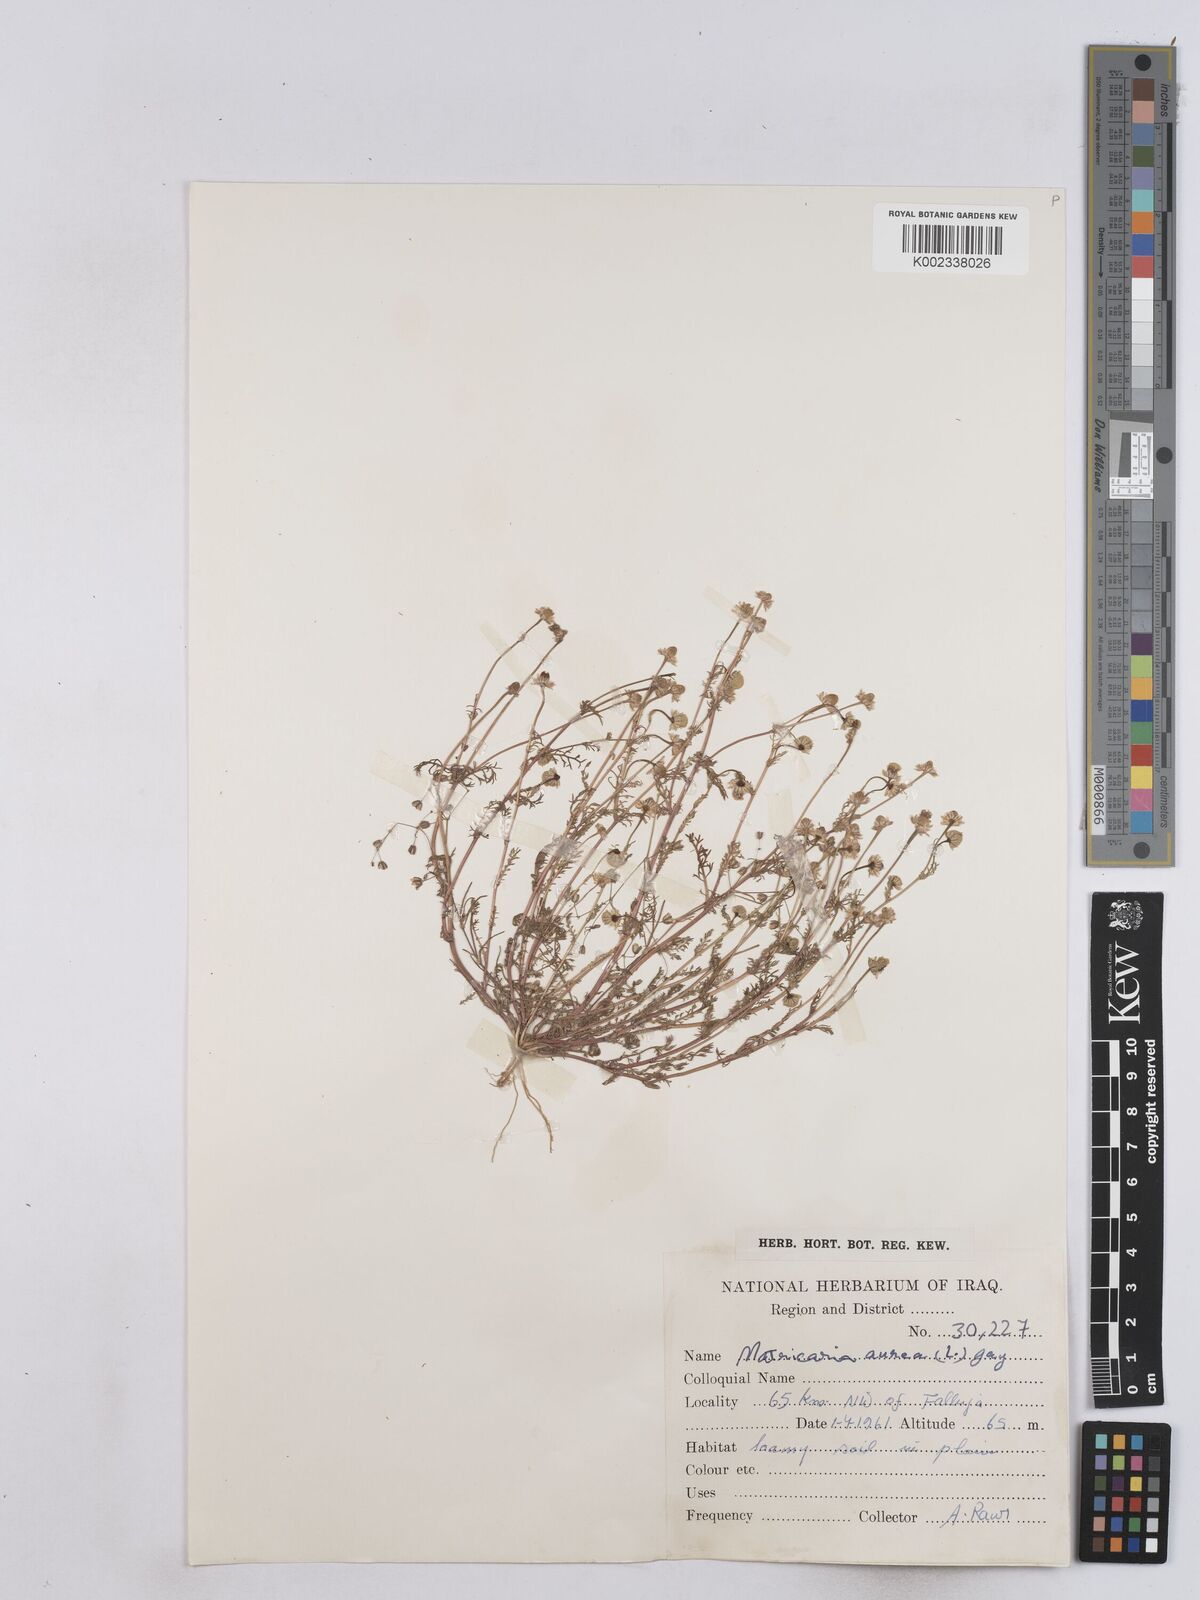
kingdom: Plantae
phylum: Tracheophyta
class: Magnoliopsida
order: Asterales
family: Asteraceae
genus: Matricaria
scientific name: Matricaria aurea
